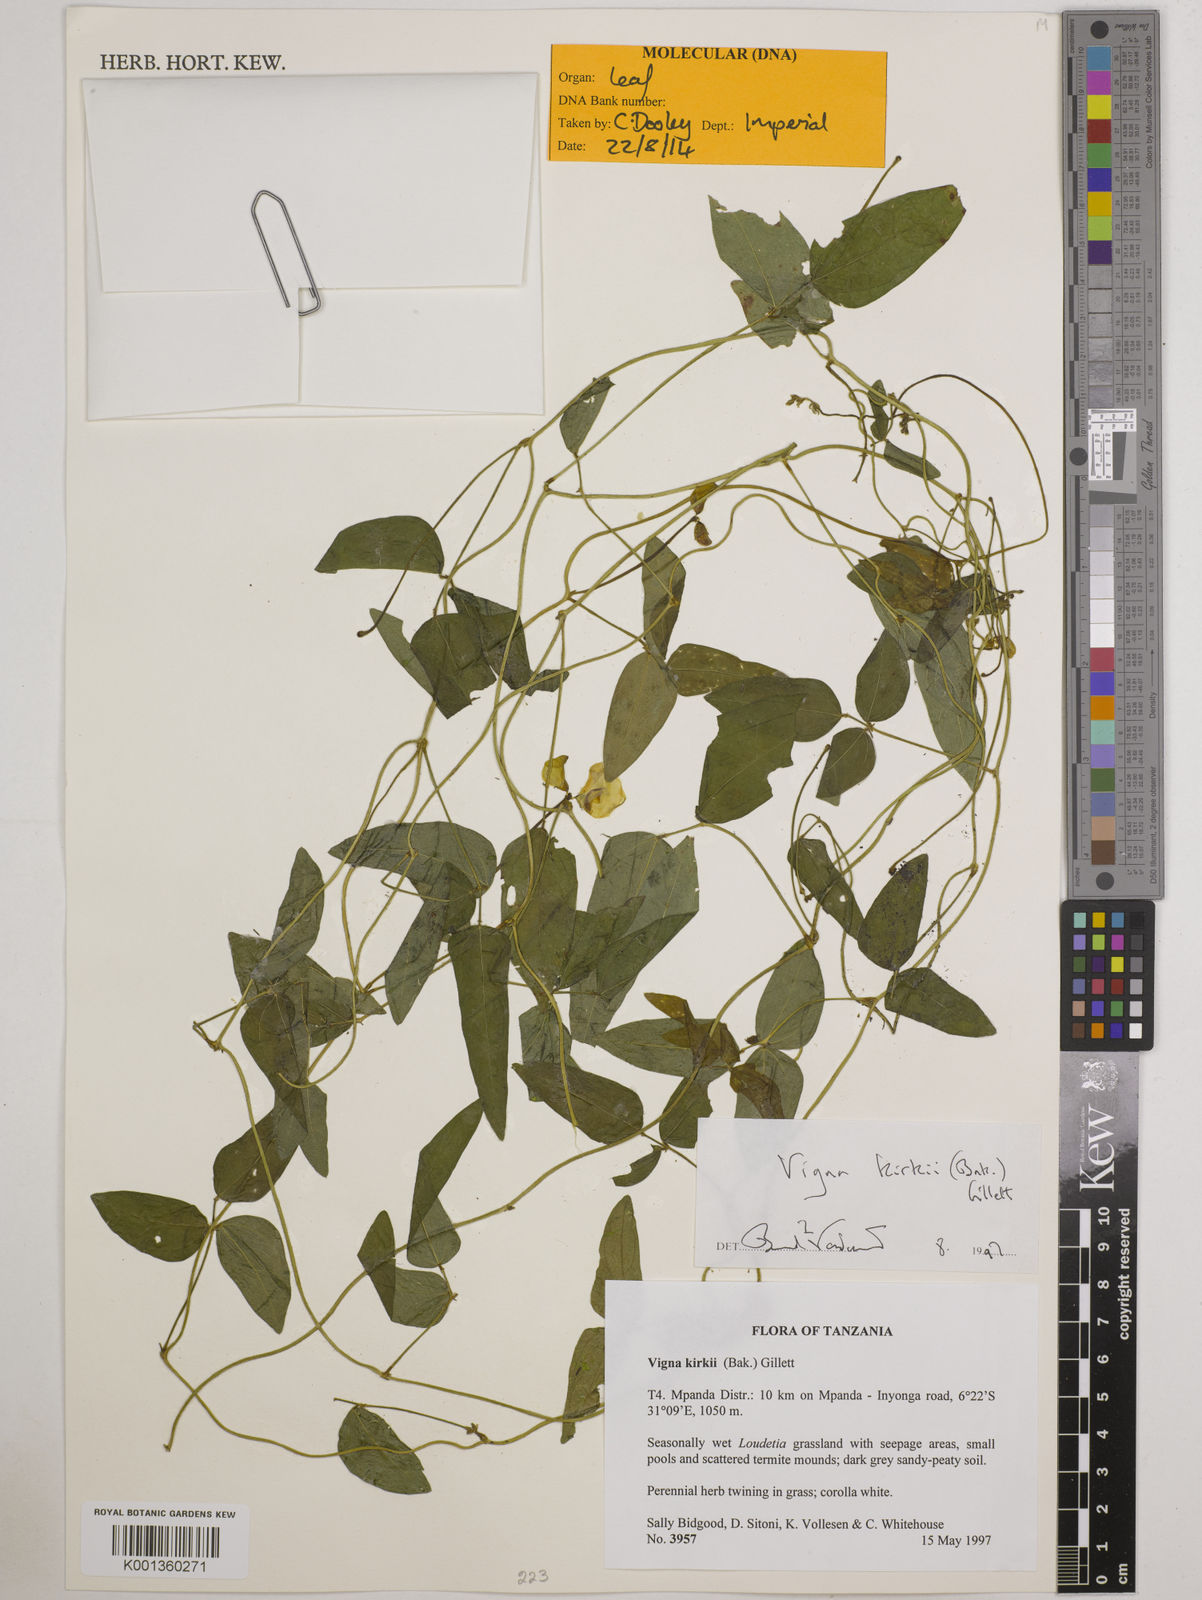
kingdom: Plantae
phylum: Tracheophyta
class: Magnoliopsida
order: Fabales
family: Fabaceae
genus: Vigna
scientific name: Vigna kirkii
